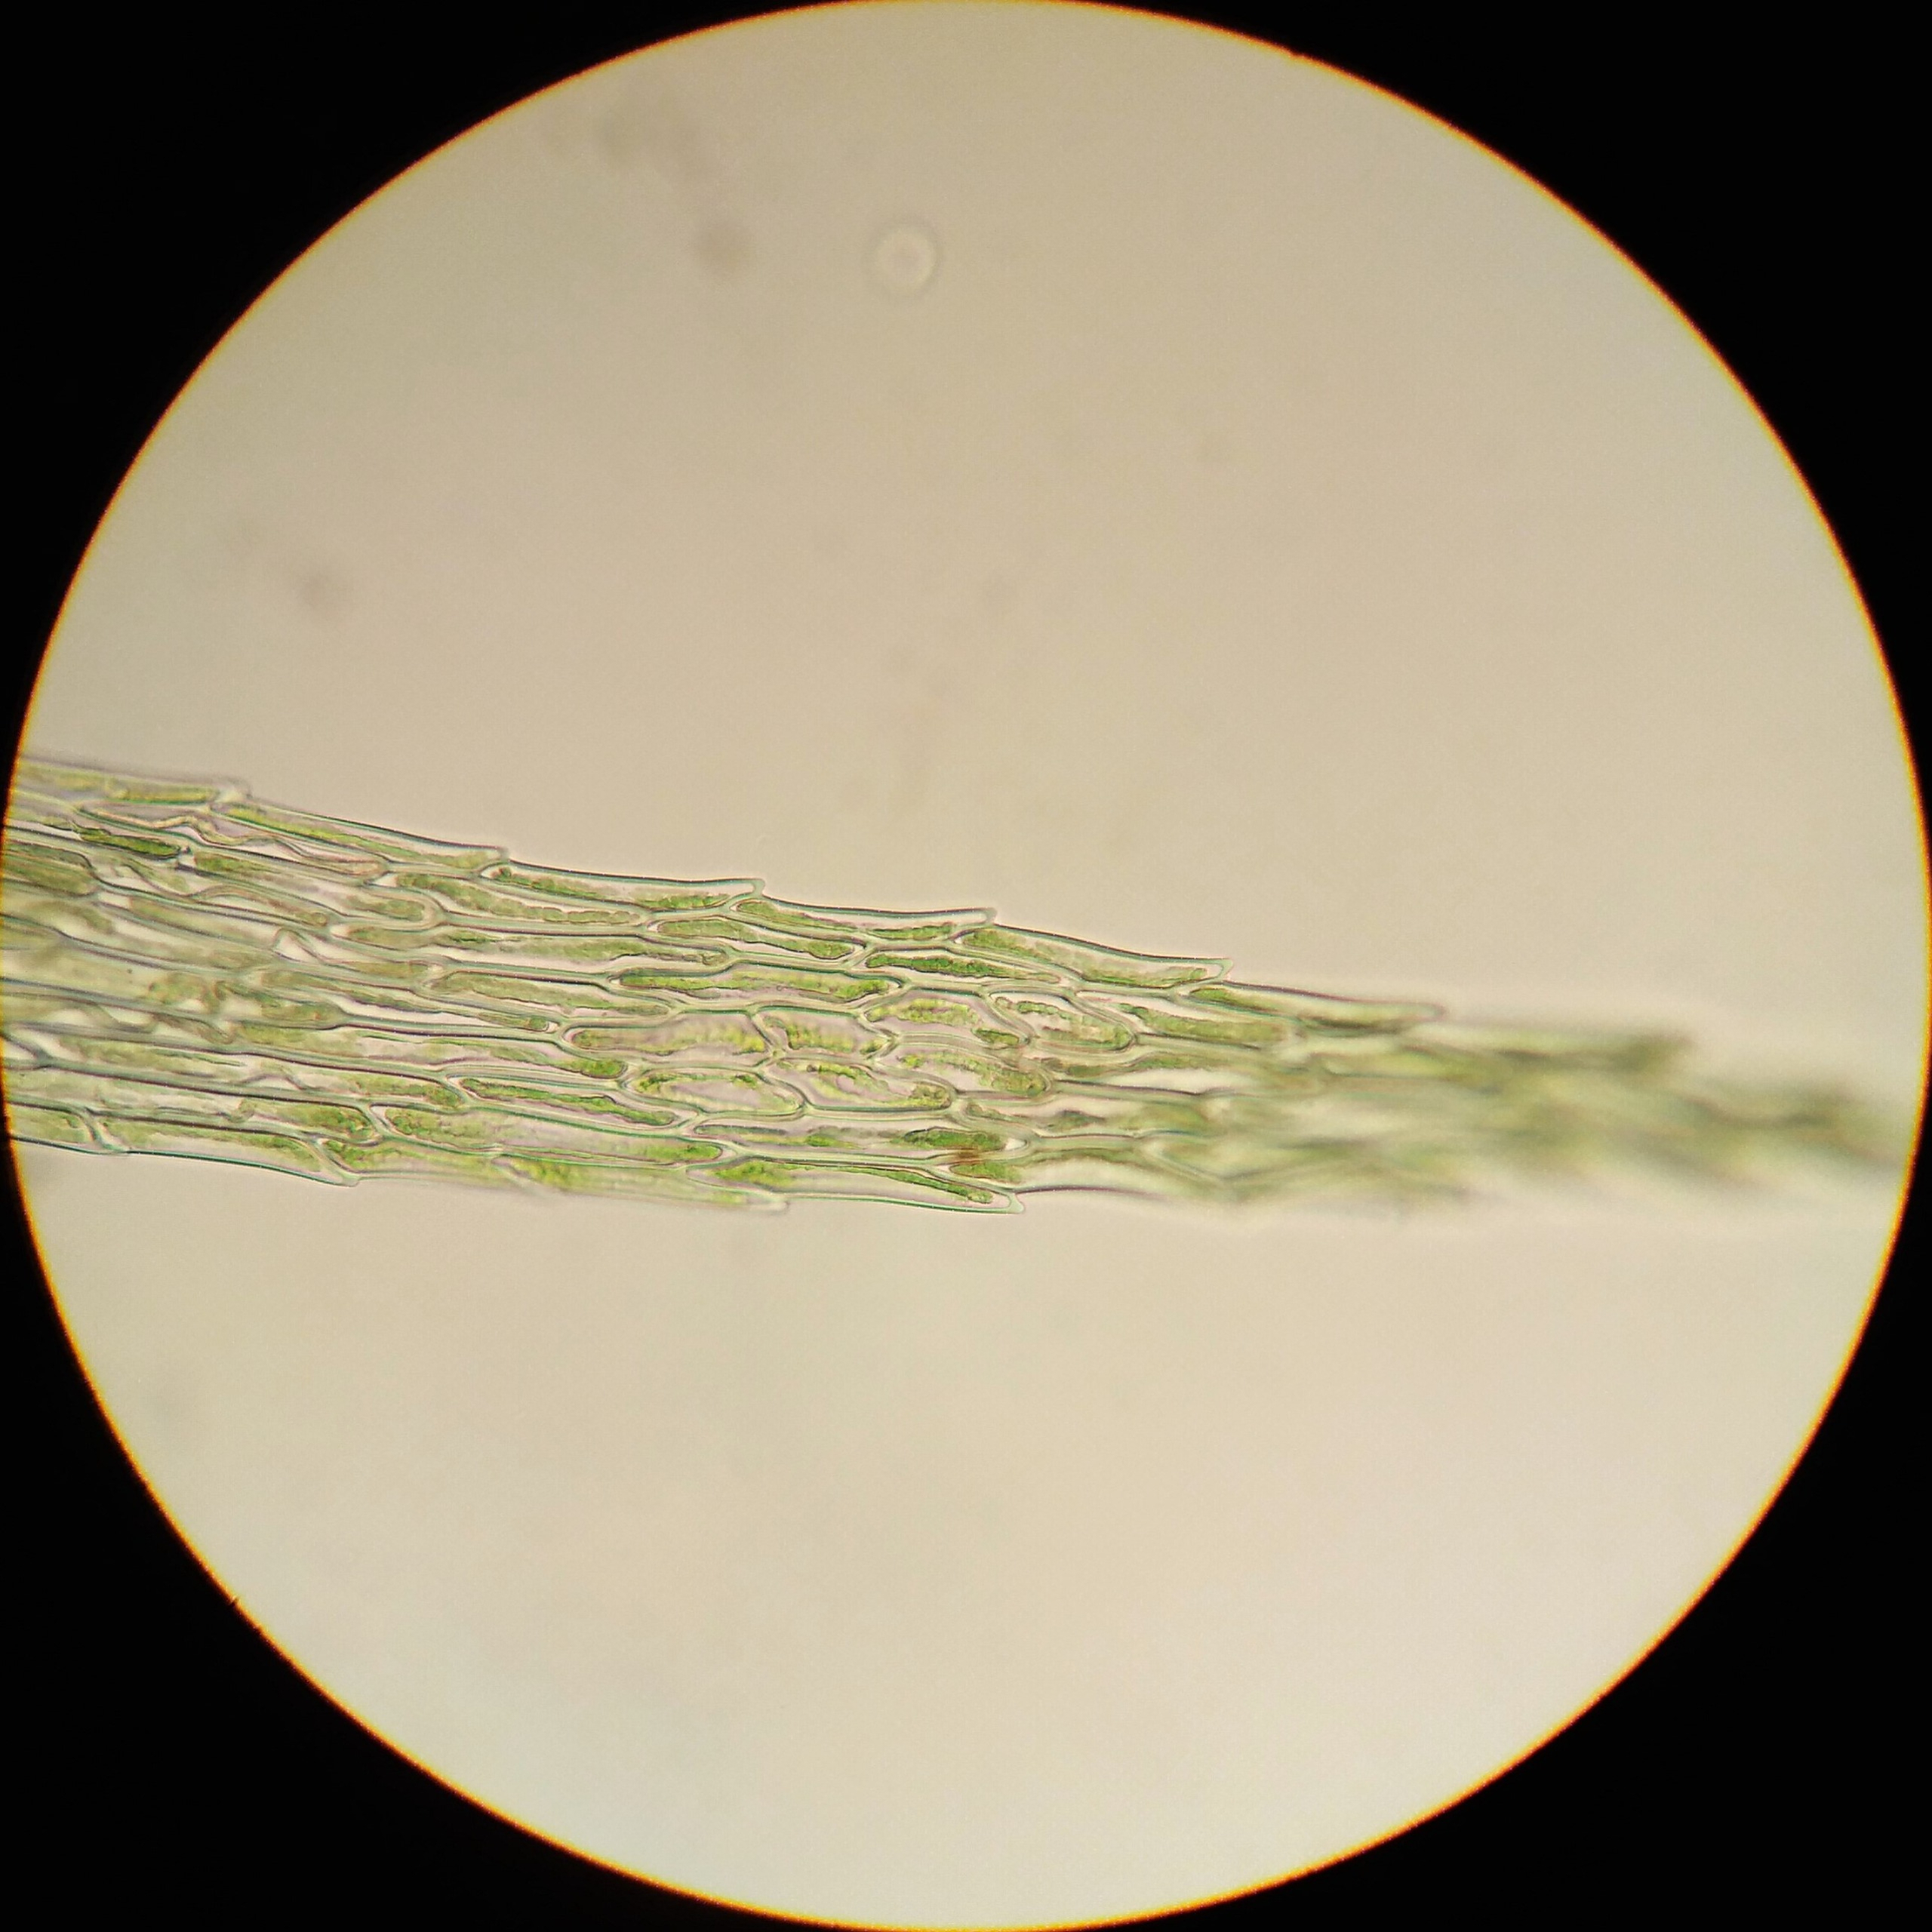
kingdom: Plantae
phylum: Bryophyta
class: Bryopsida
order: Hypnales
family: Calliergonaceae
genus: Warnstorfia
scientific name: Warnstorfia fluitans
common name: Vand-bueblad
